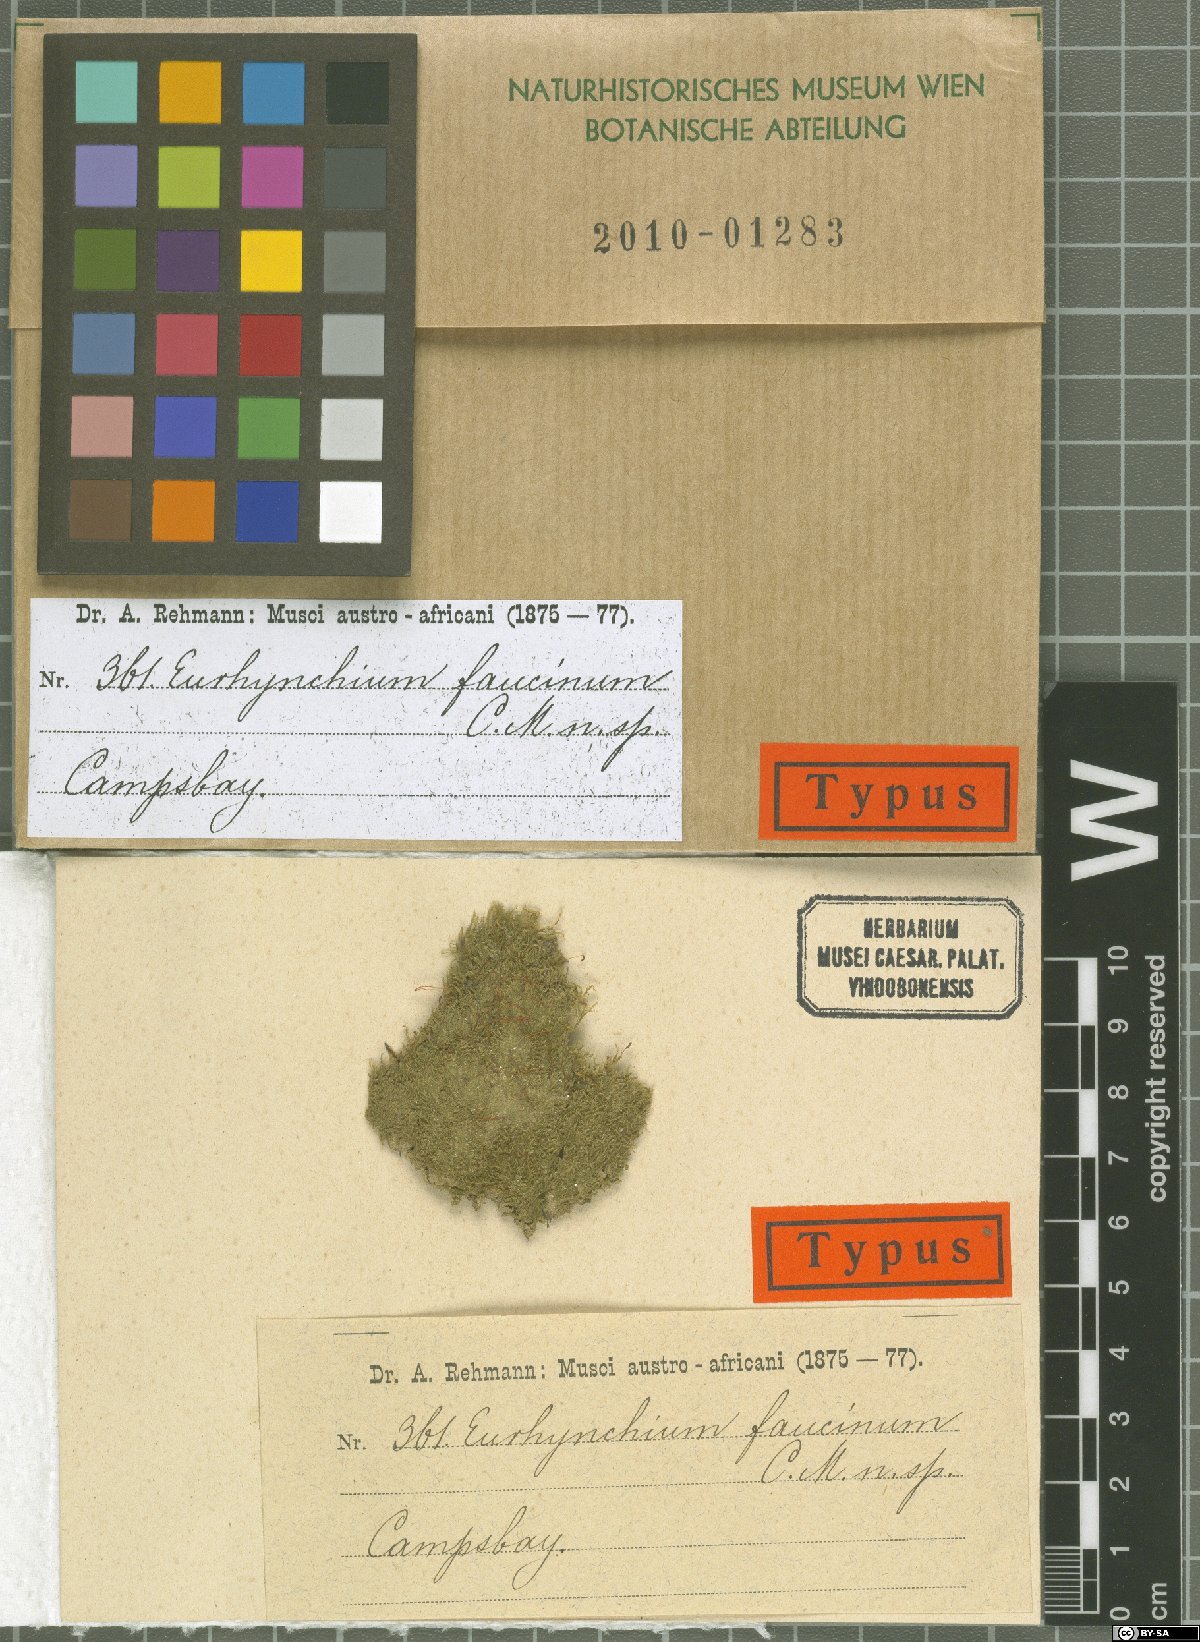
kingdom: Plantae
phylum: Bryophyta
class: Bryopsida
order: Hypnales
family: Brachytheciaceae
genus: Rhynchostegium
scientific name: Rhynchostegium zeyheri
